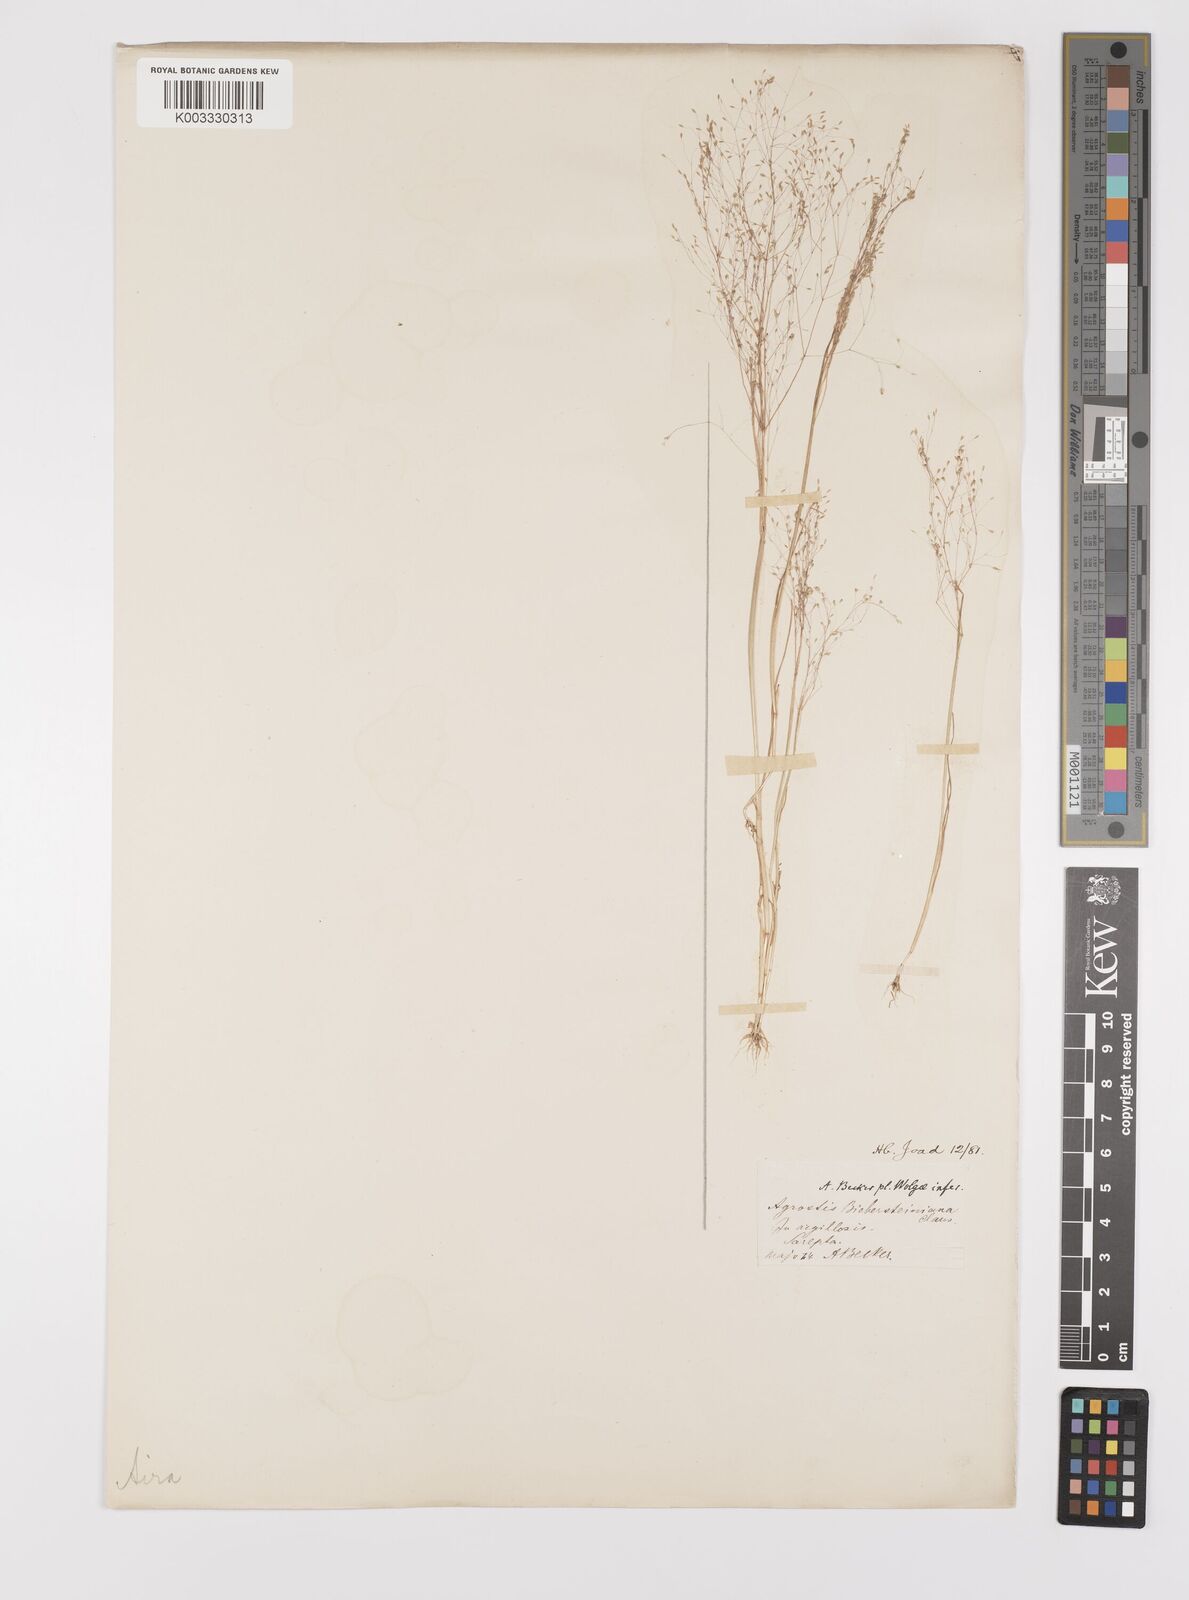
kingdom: Plantae
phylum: Tracheophyta
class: Liliopsida
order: Poales
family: Poaceae
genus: Colpodium
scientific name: Colpodium biebersteinianum
